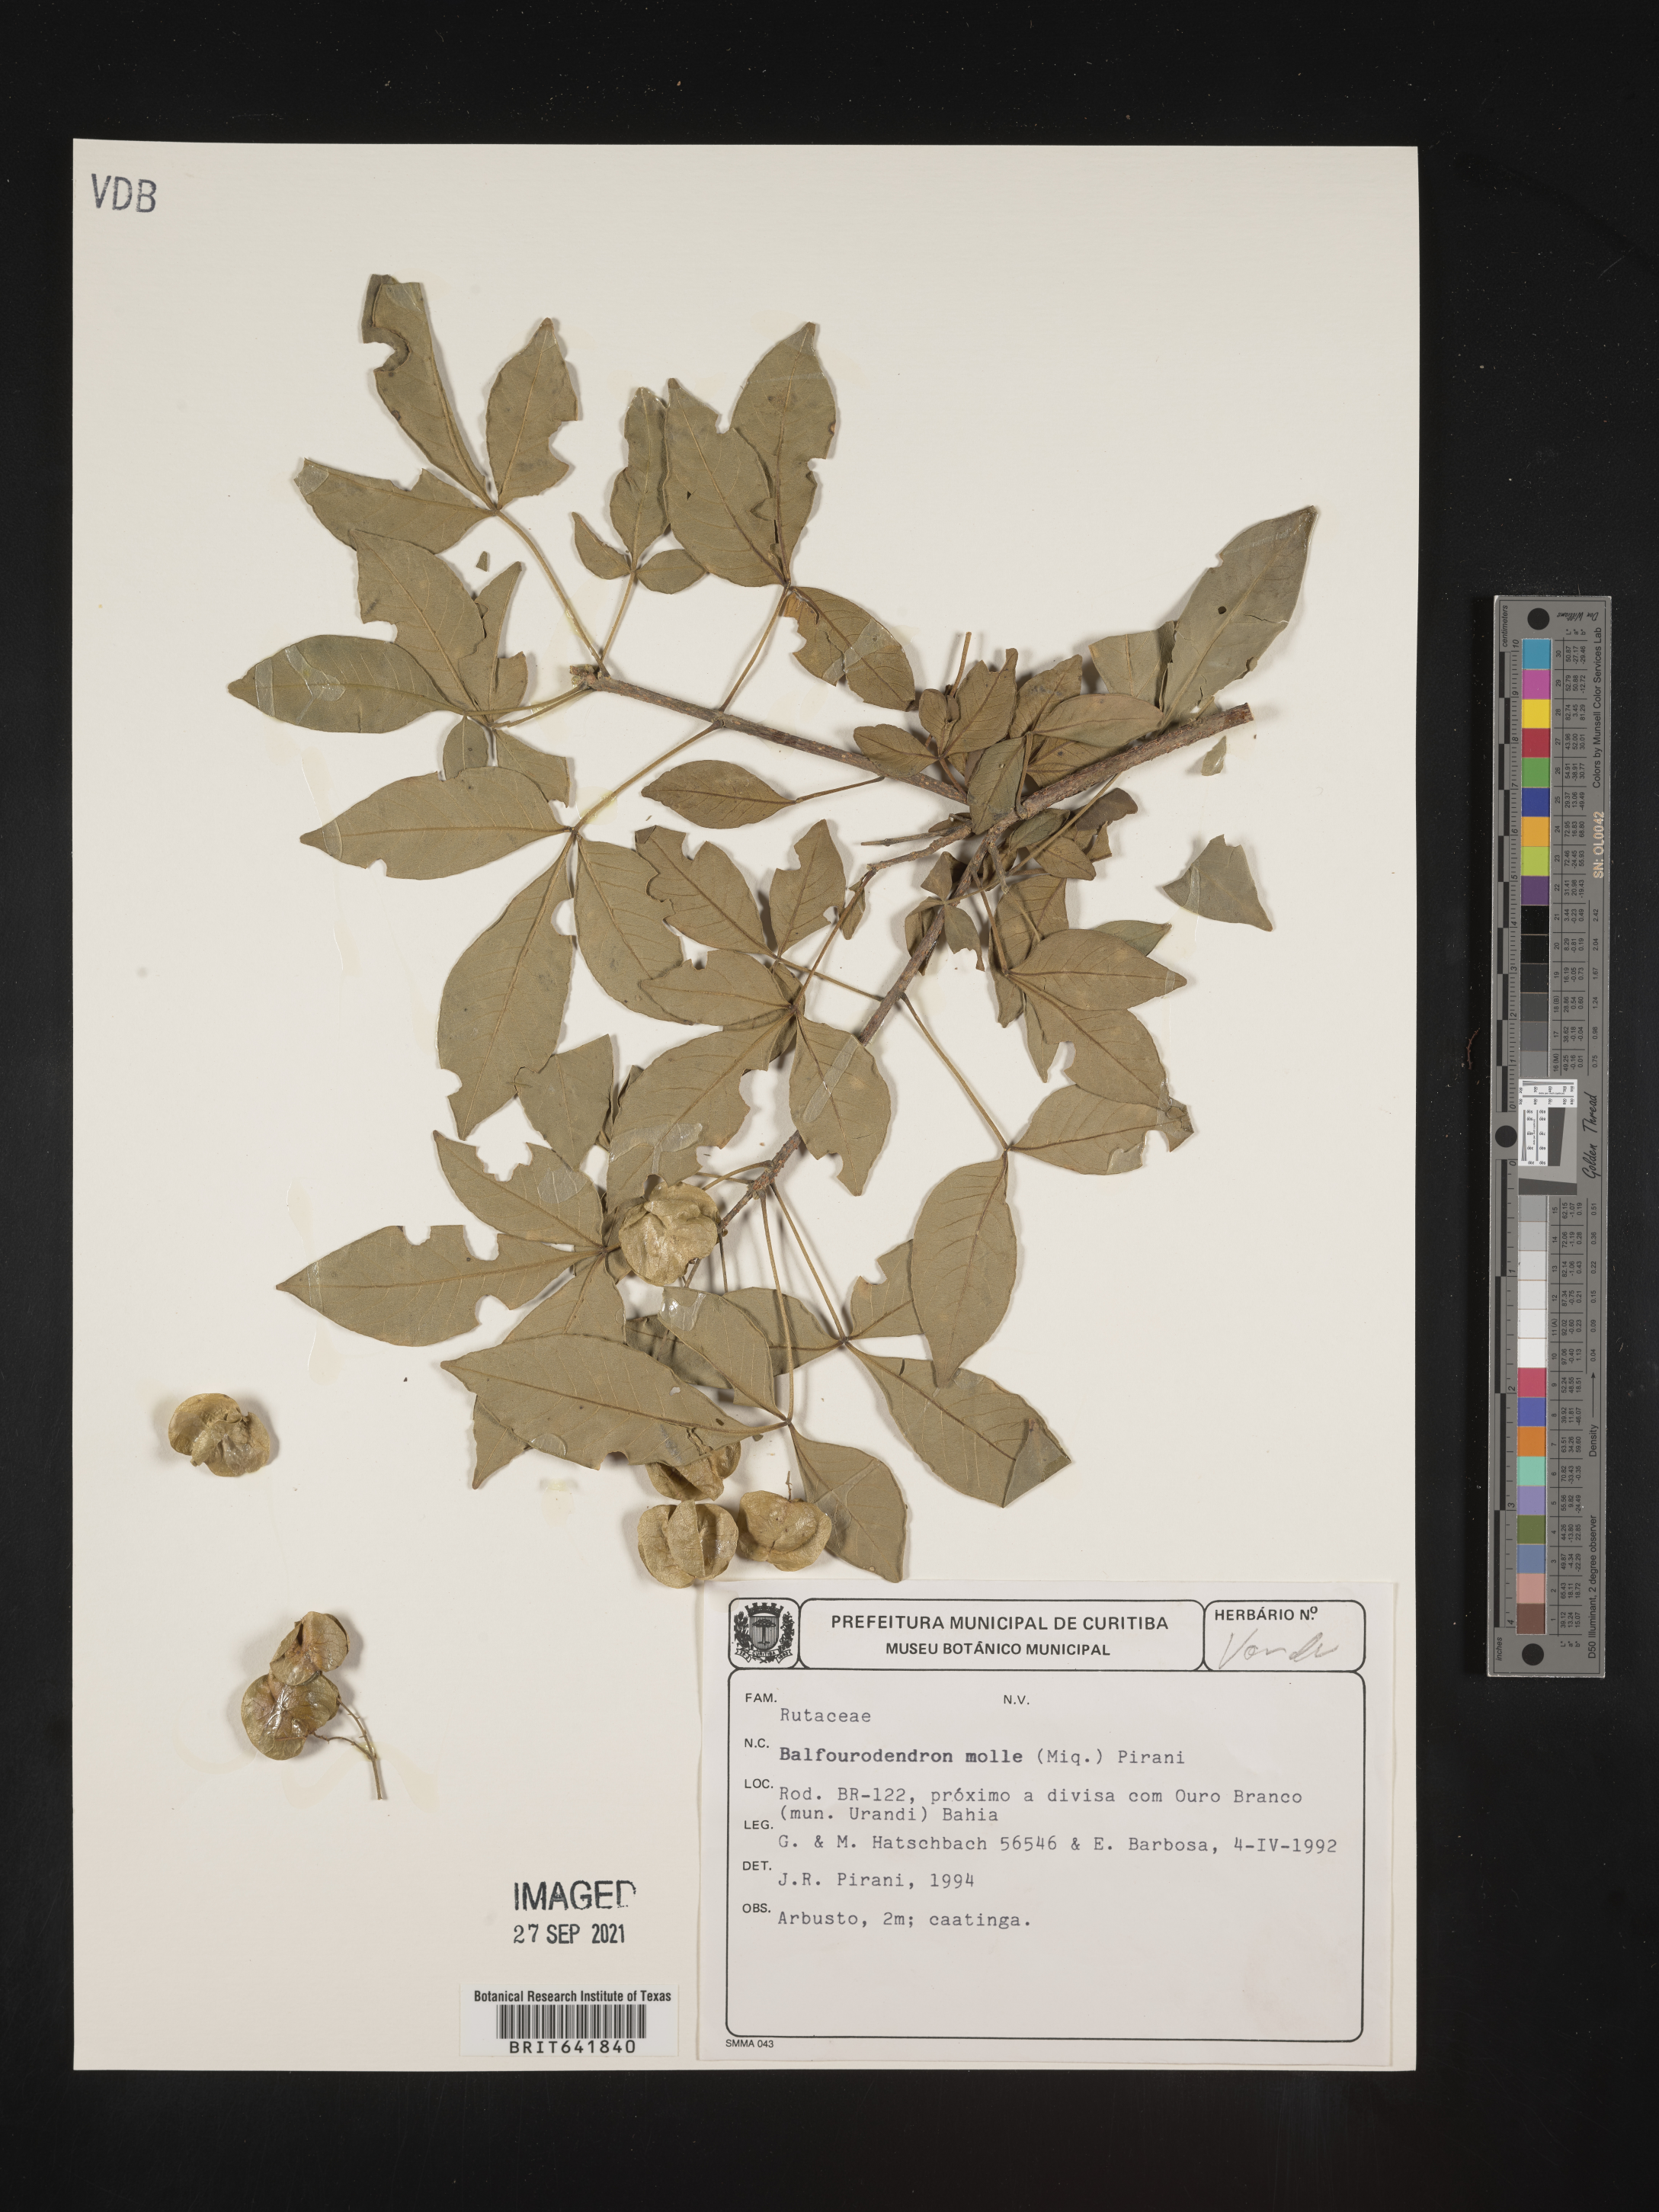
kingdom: Plantae
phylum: Tracheophyta
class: Magnoliopsida
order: Sapindales
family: Rutaceae
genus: Balfourodendron
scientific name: Balfourodendron
